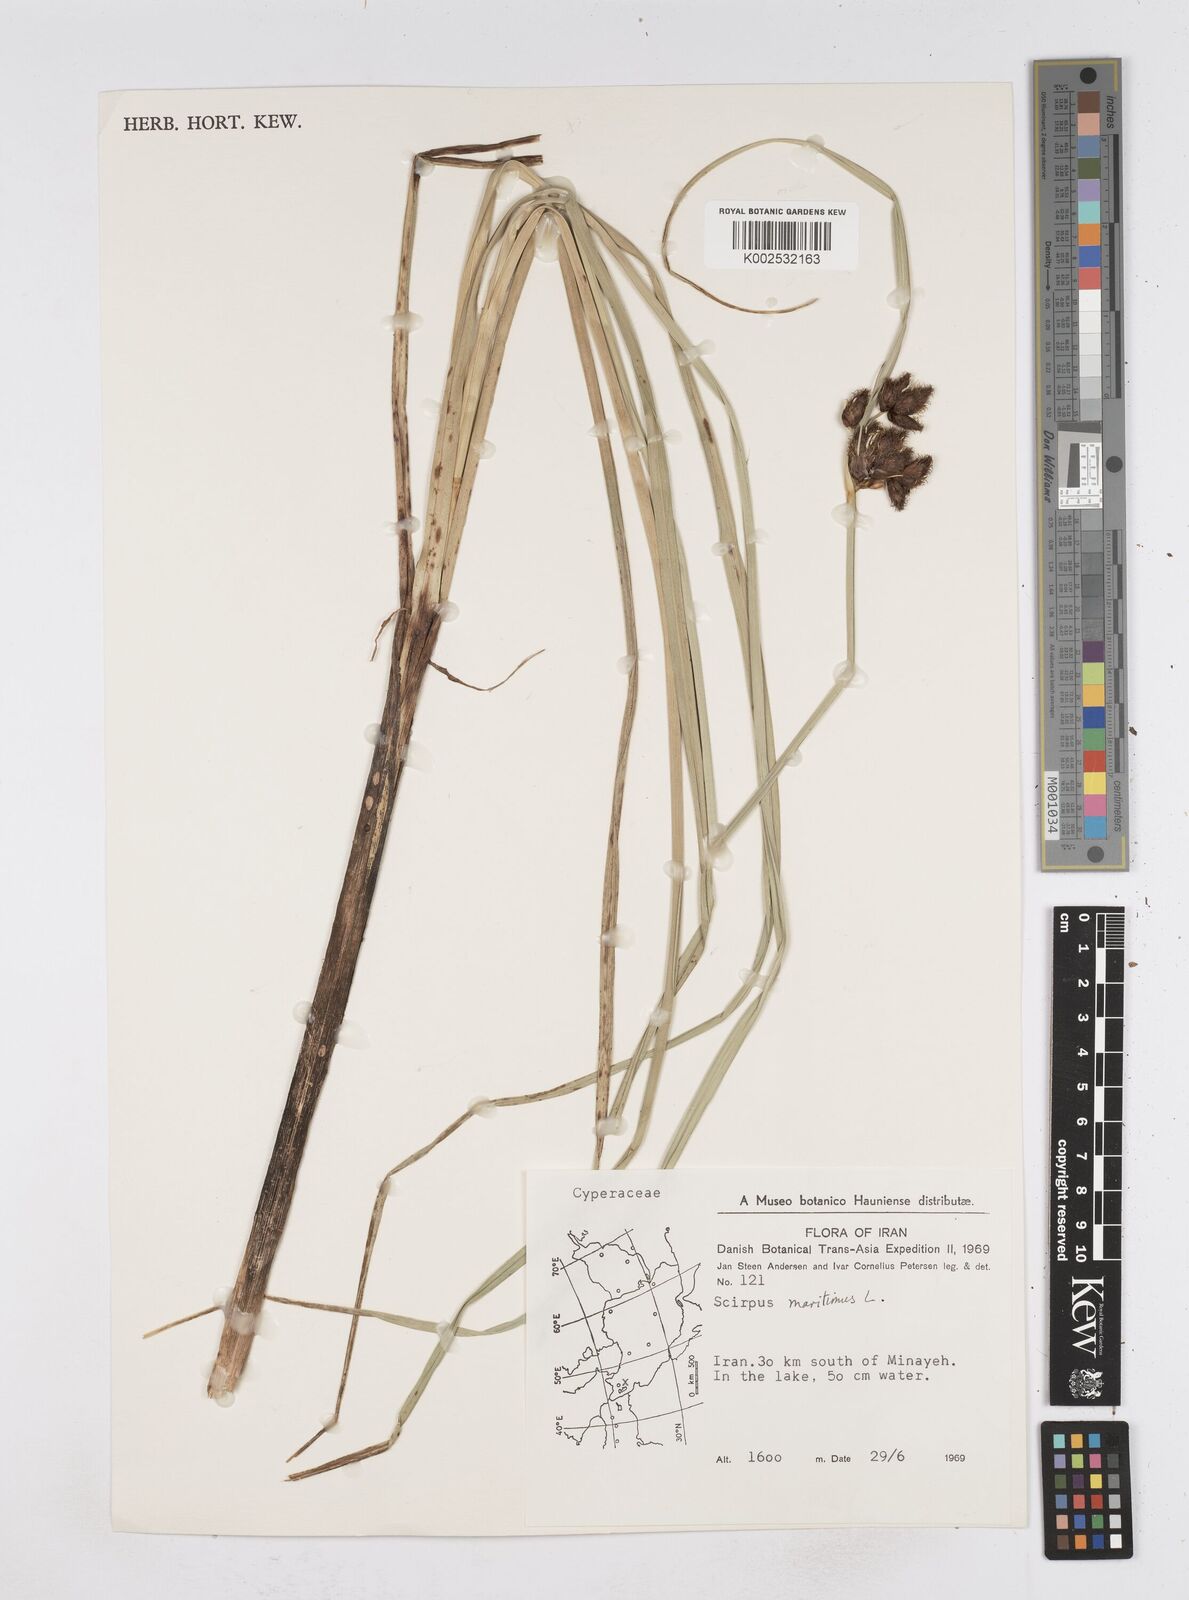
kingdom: Plantae
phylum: Tracheophyta
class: Liliopsida
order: Poales
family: Cyperaceae
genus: Bolboschoenus
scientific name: Bolboschoenus maritimus
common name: Sea club-rush
